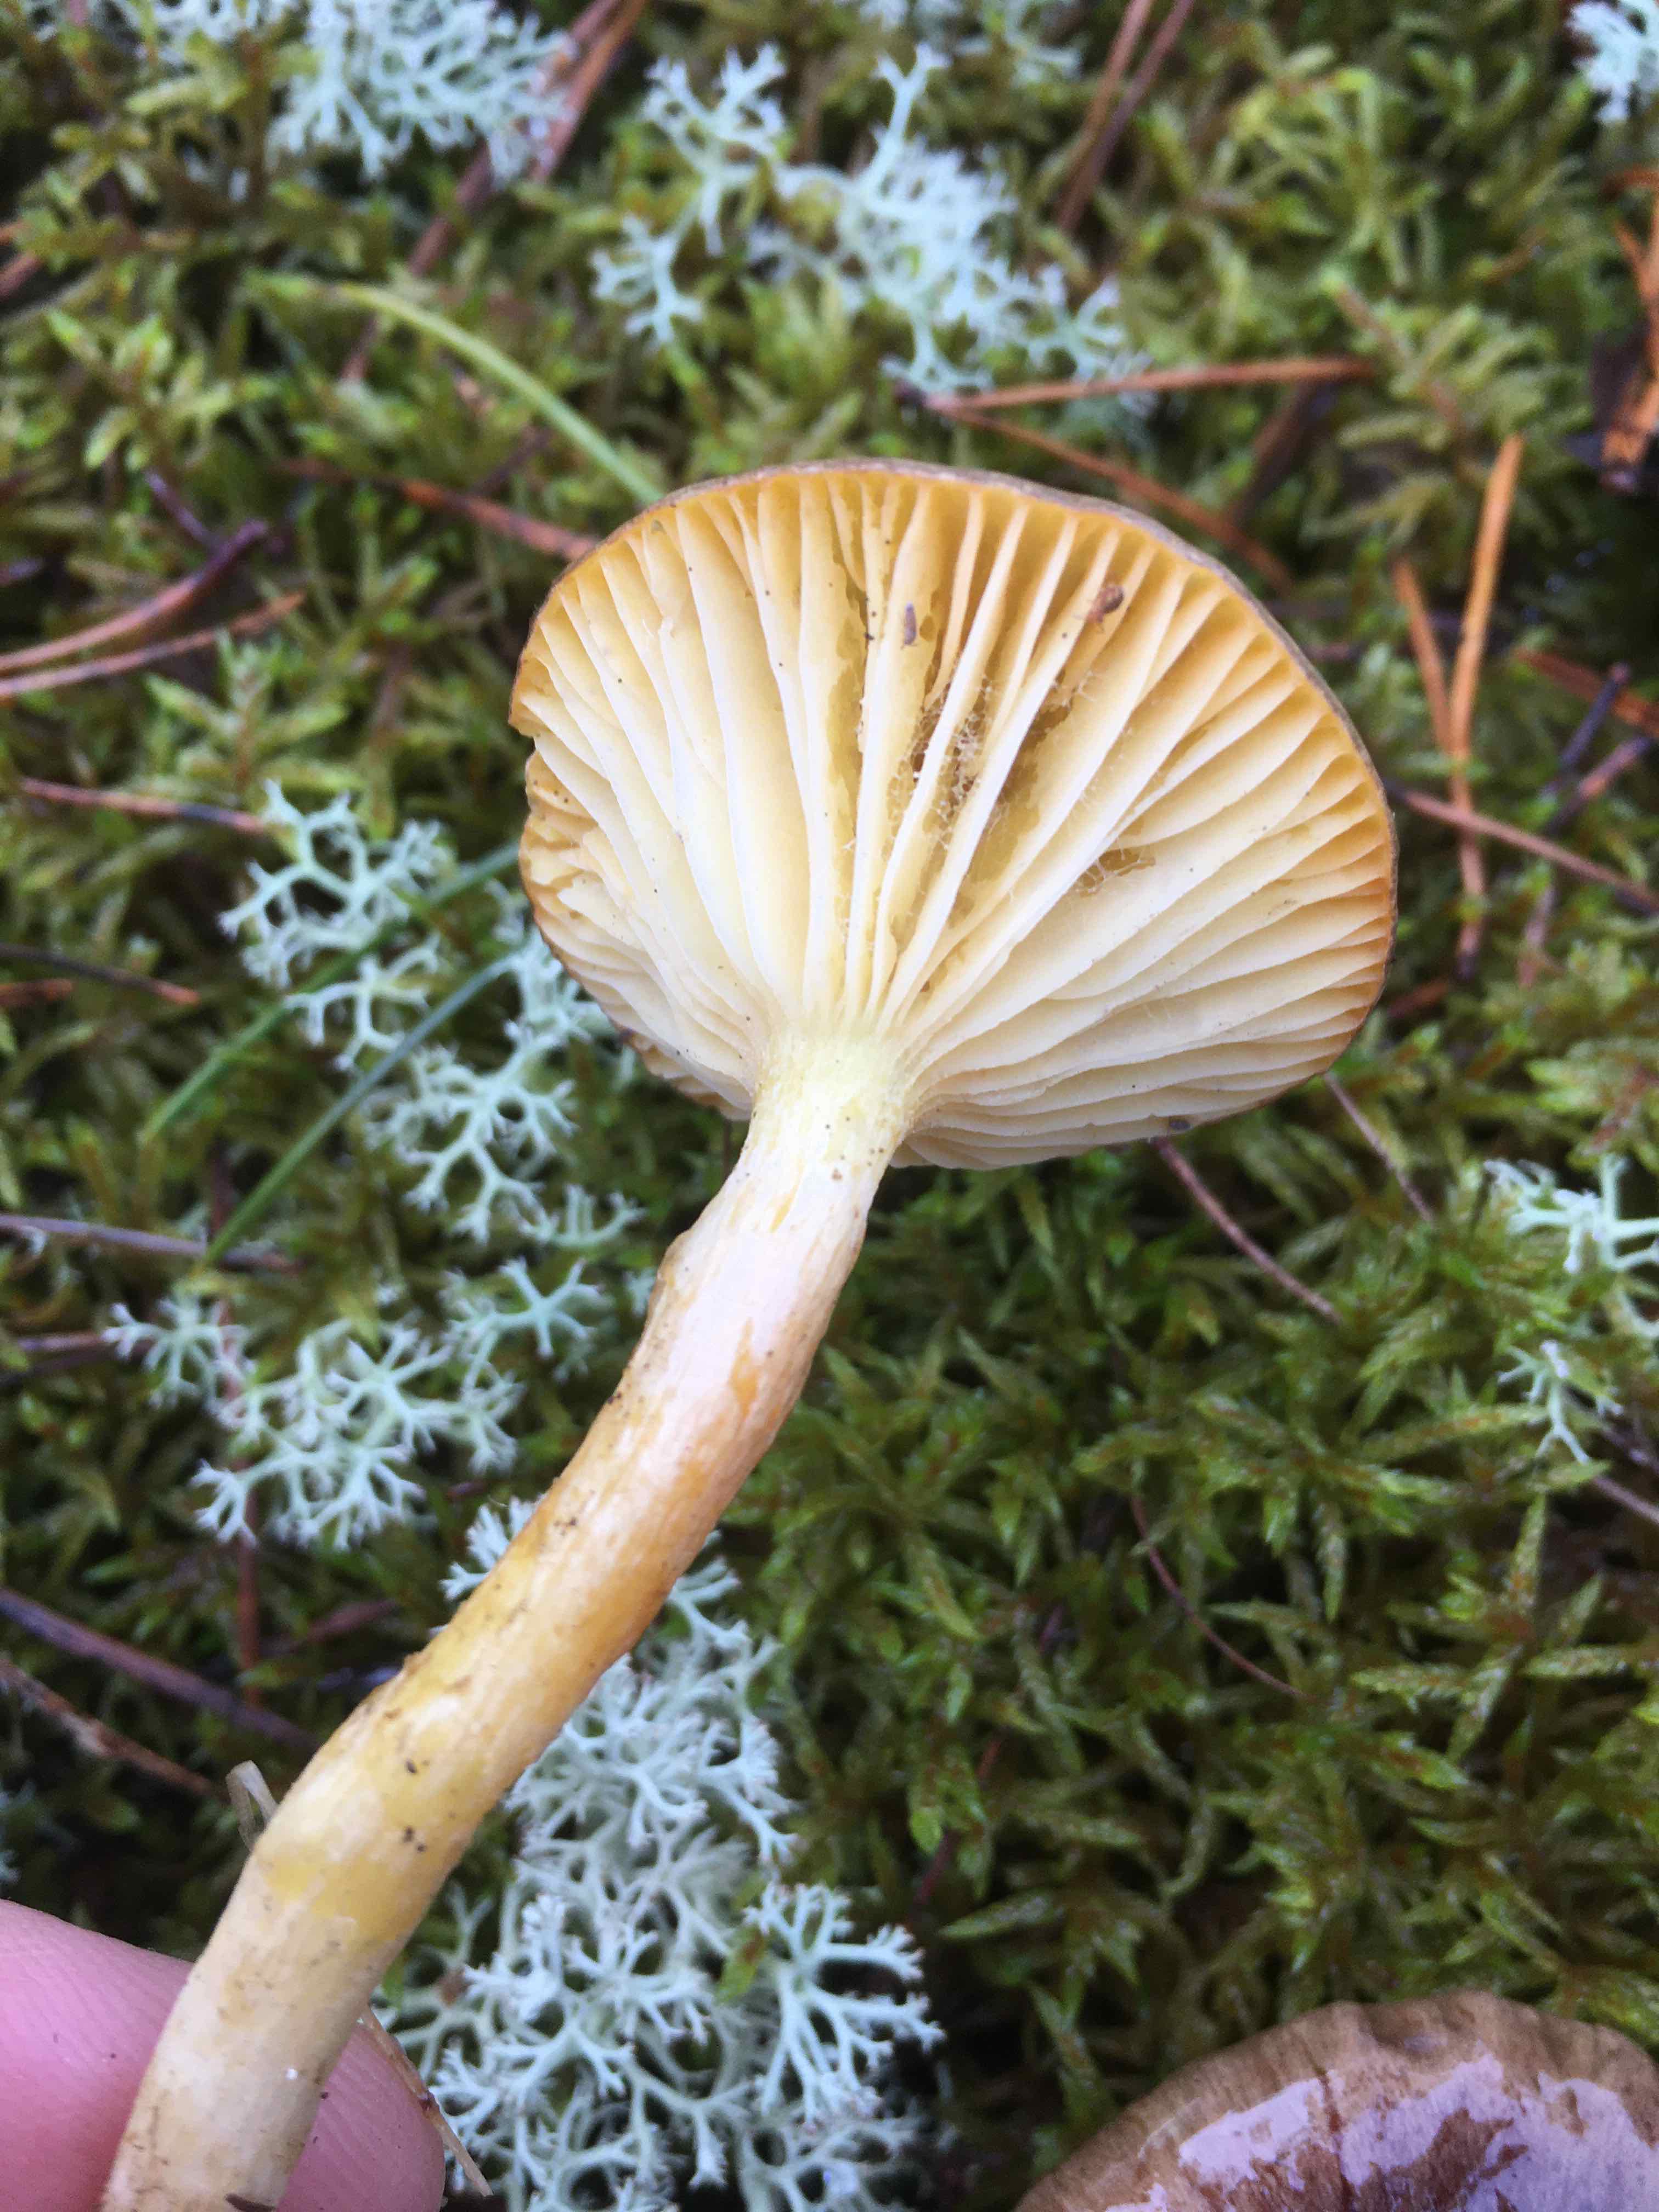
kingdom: Fungi
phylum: Basidiomycota
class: Agaricomycetes
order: Agaricales
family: Hygrophoraceae
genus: Hygrophorus
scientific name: Hygrophorus hypothejus
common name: frost-sneglehat
